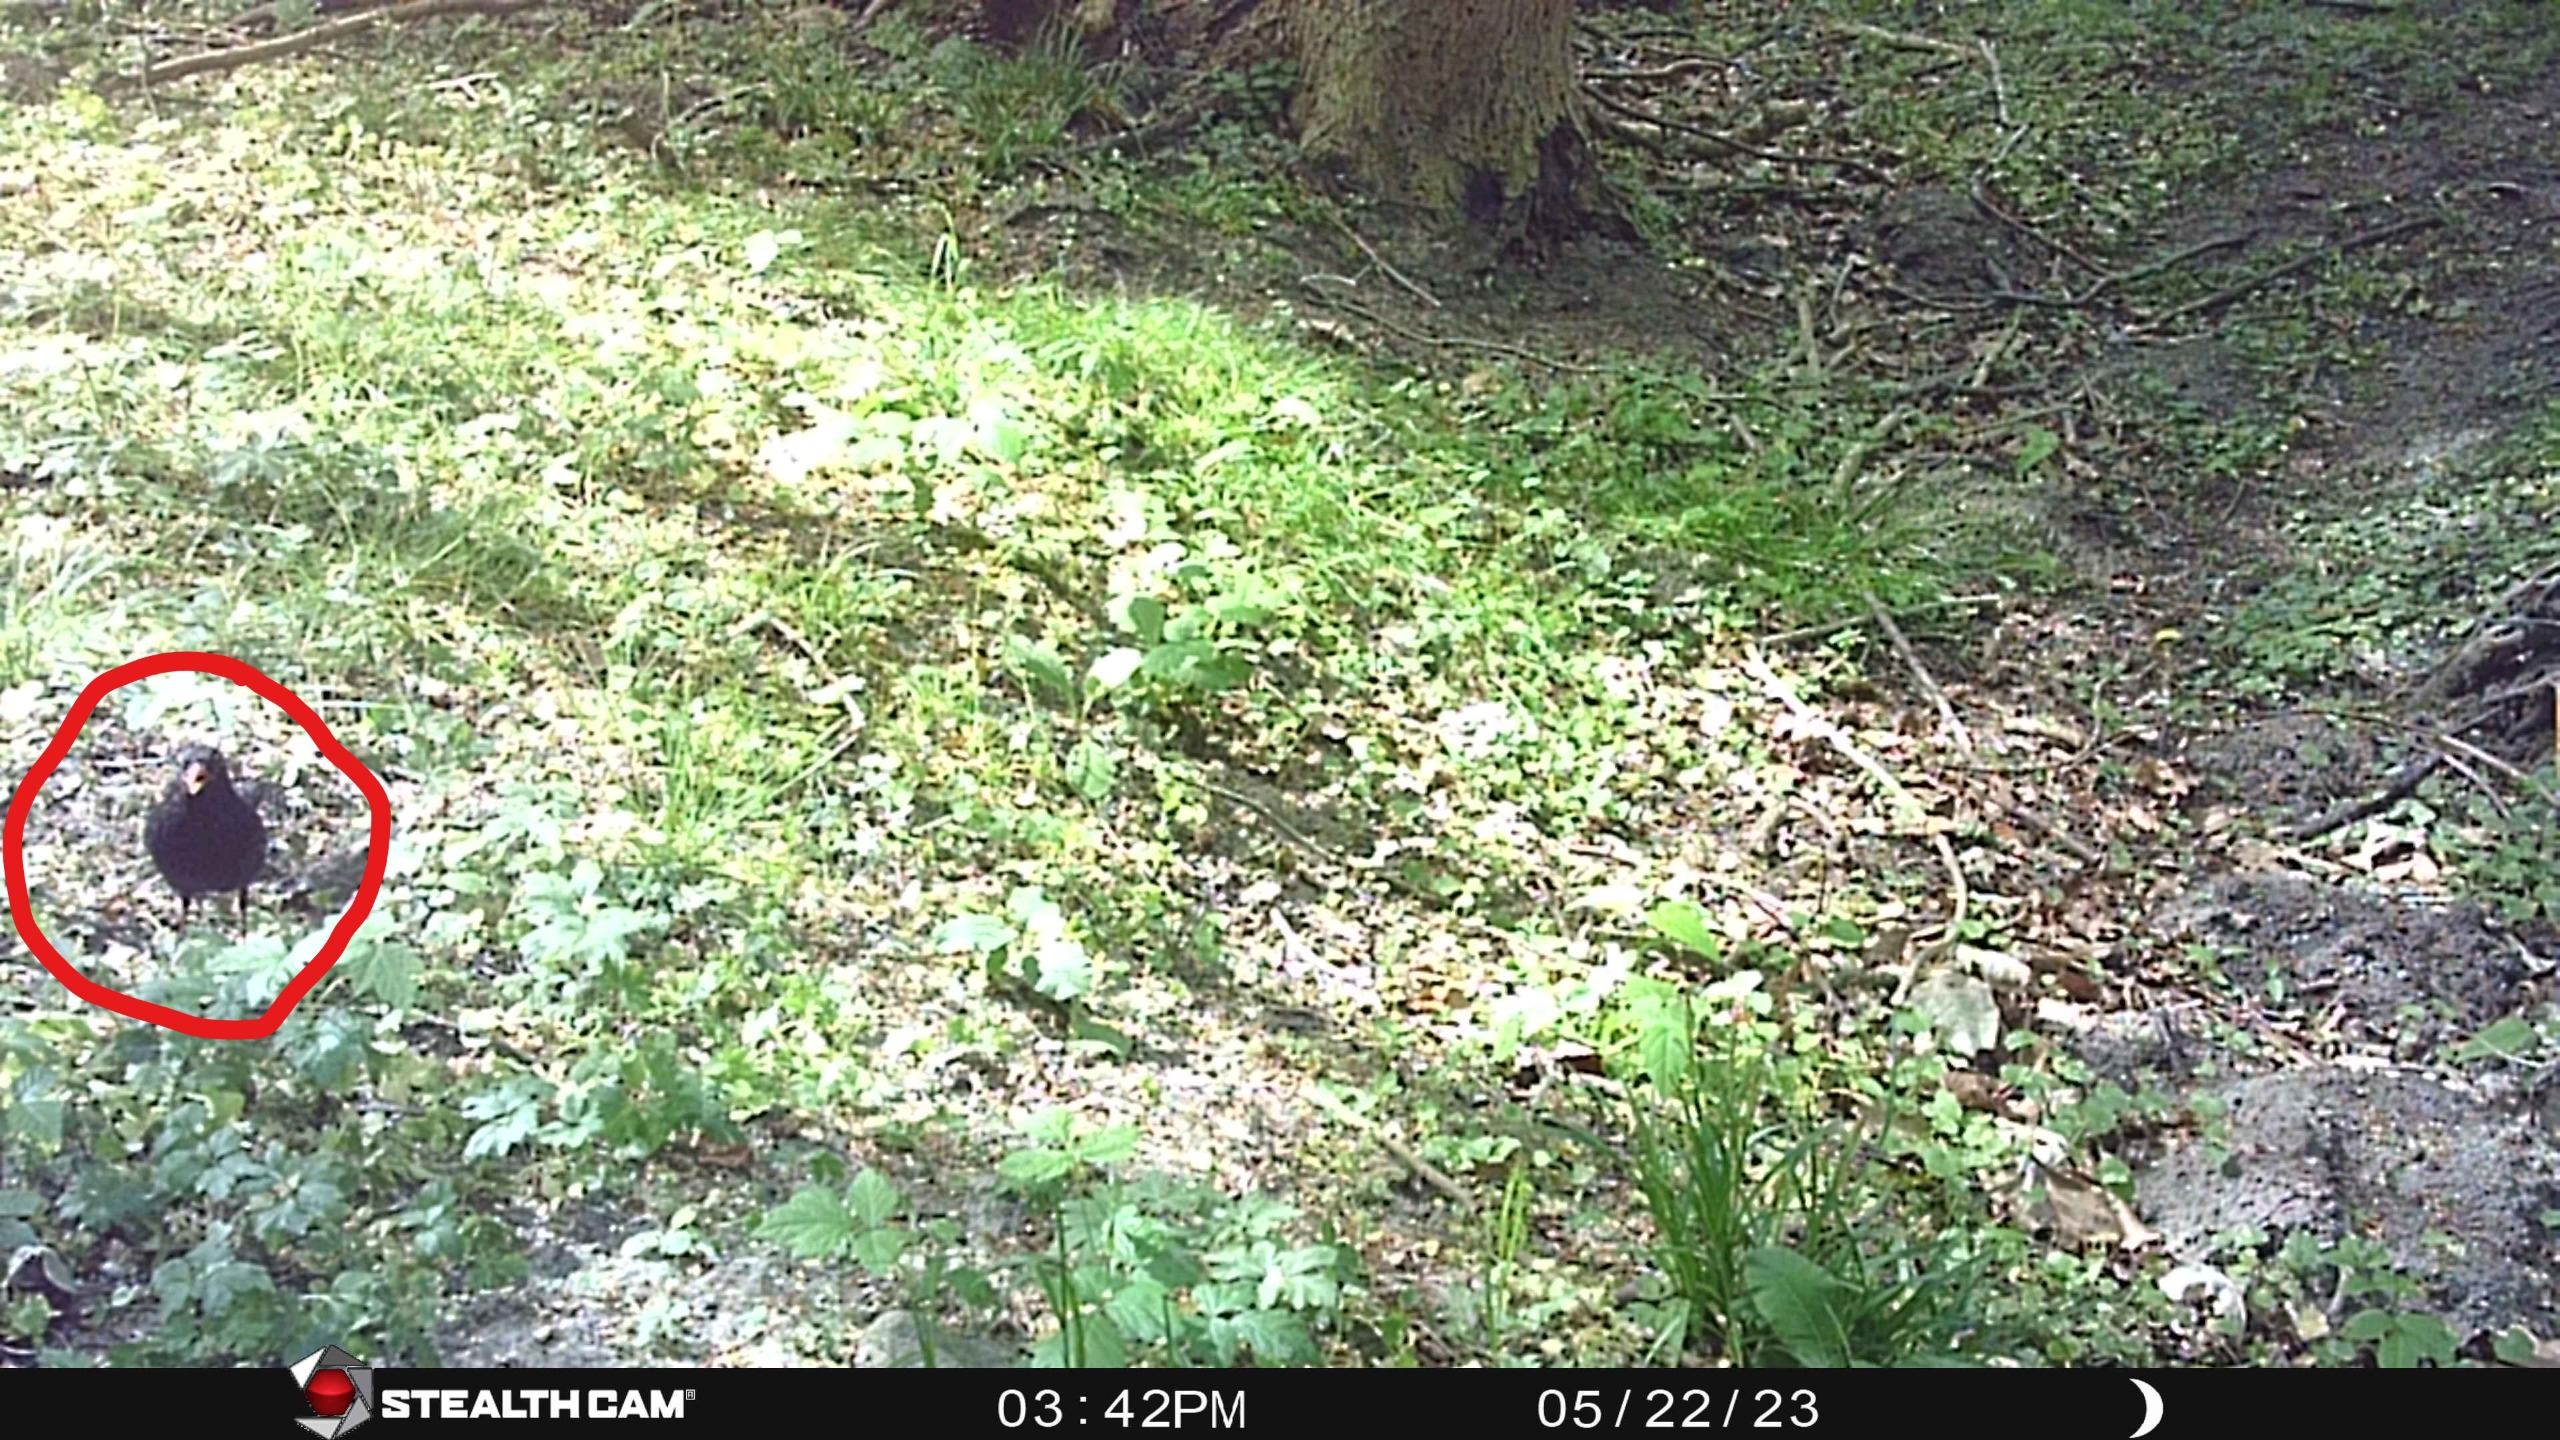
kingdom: Animalia
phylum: Chordata
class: Aves
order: Passeriformes
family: Turdidae
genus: Turdus
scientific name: Turdus merula
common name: Solsort
